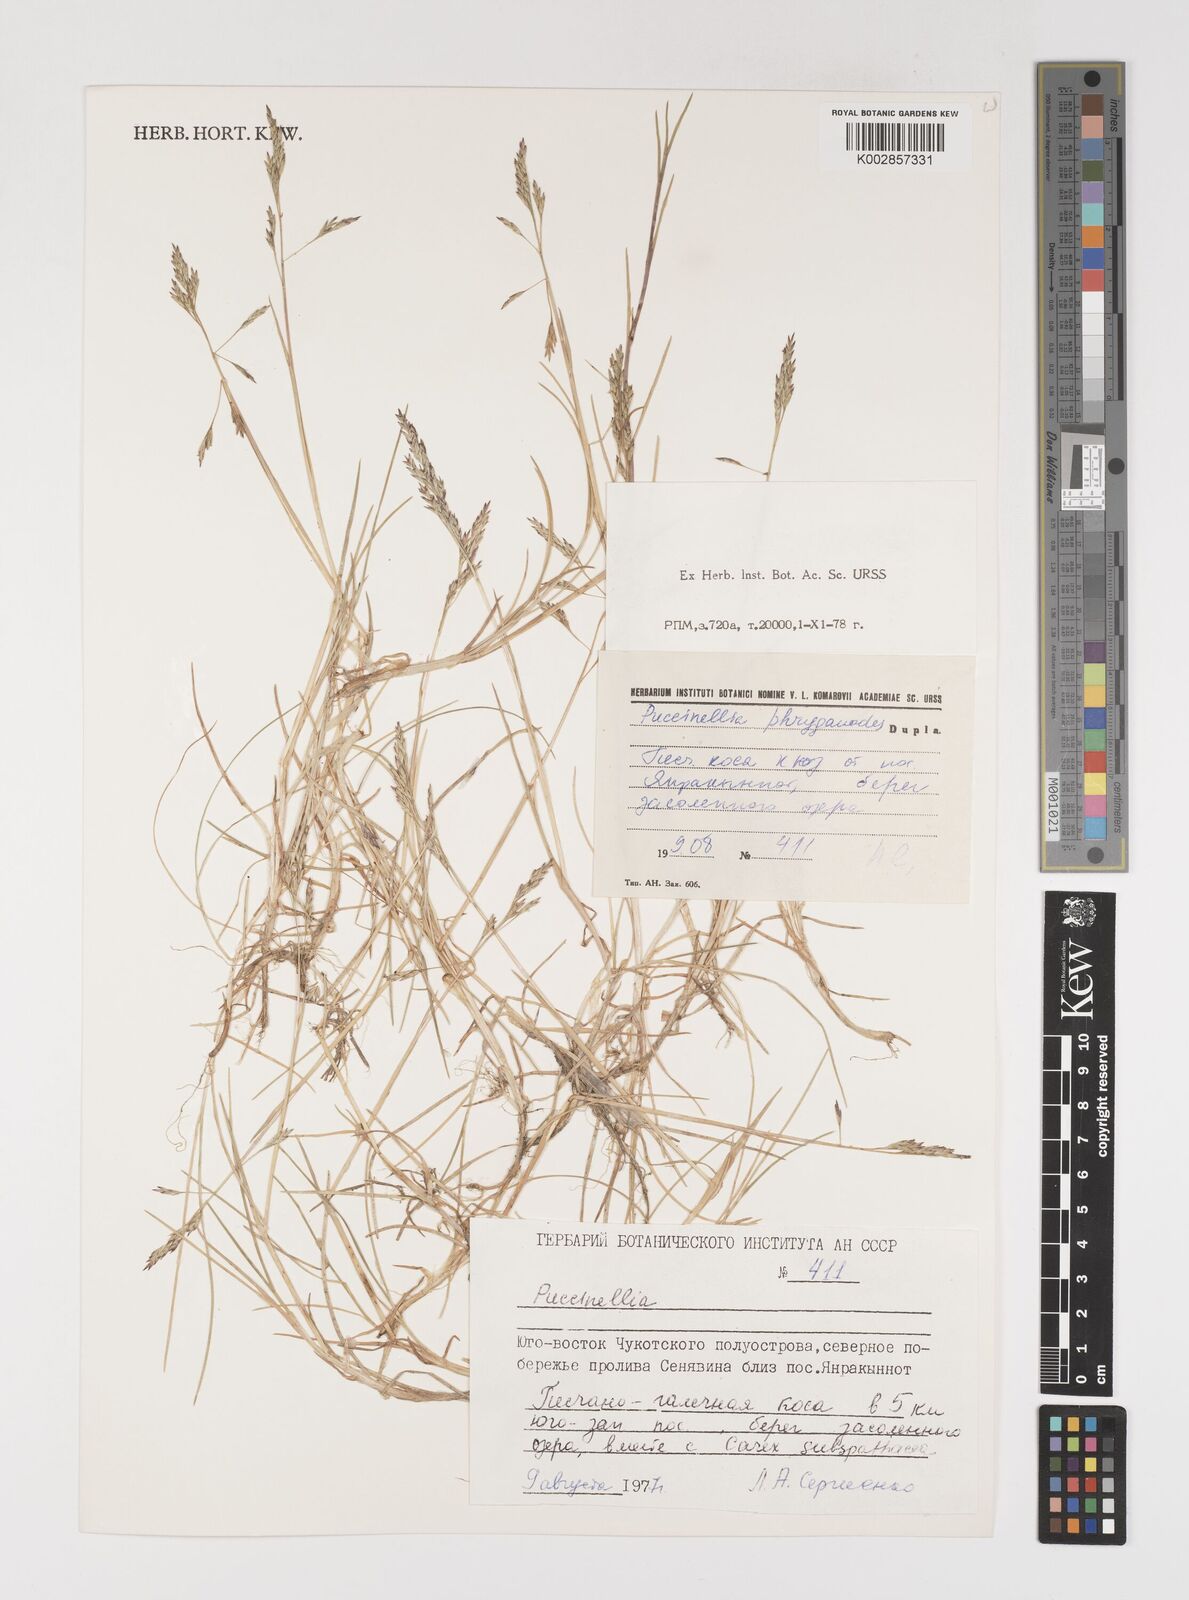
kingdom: Plantae
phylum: Tracheophyta
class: Liliopsida
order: Poales
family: Poaceae
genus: Puccinellia
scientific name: Puccinellia phryganodes
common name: Creeping alkaligrass
